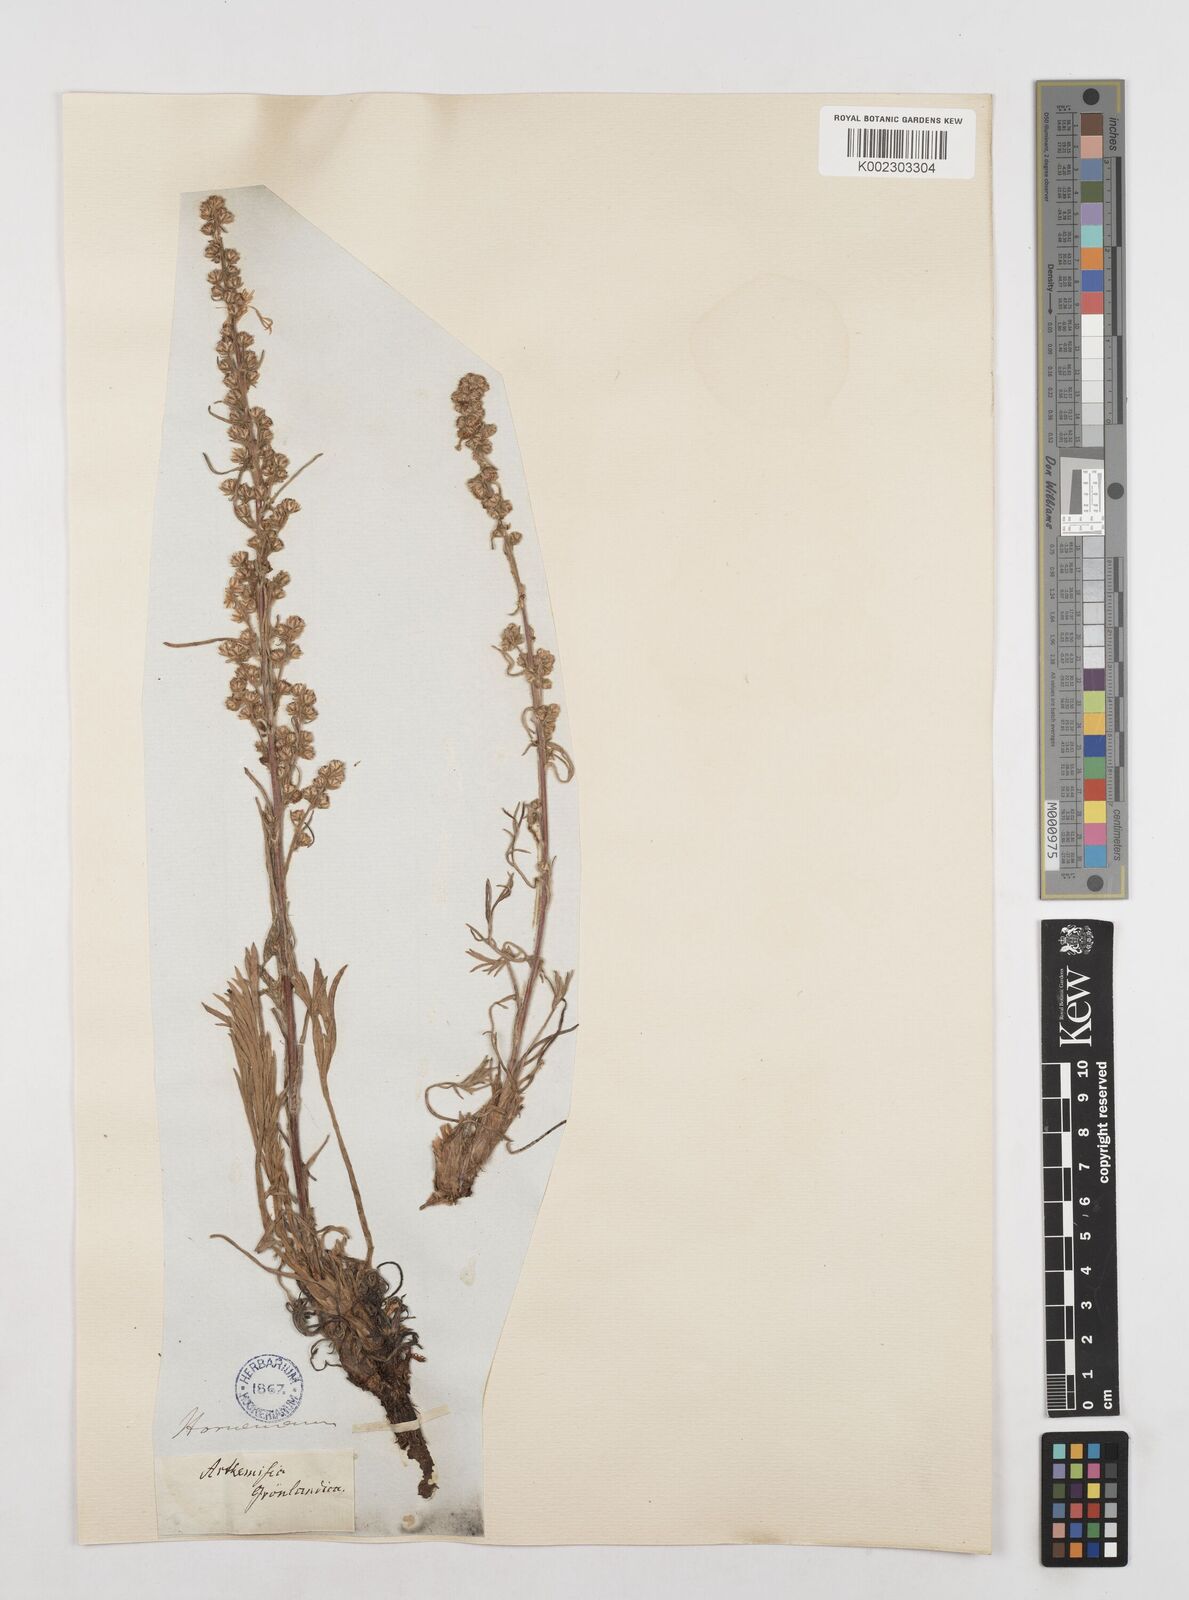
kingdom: Plantae
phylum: Tracheophyta
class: Magnoliopsida
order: Asterales
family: Asteraceae
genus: Artemisia
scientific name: Artemisia
